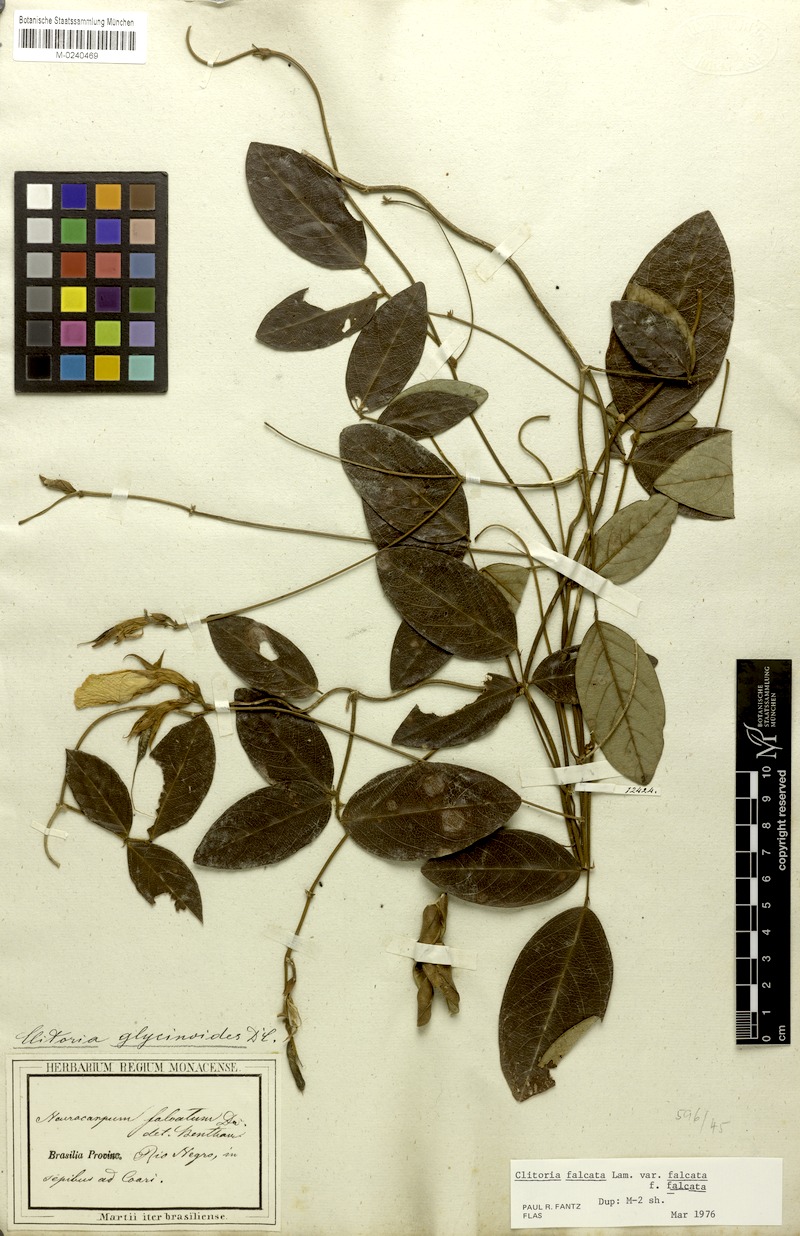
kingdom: Plantae
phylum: Tracheophyta
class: Magnoliopsida
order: Fabales
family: Fabaceae
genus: Clitoria
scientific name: Clitoria falcata
